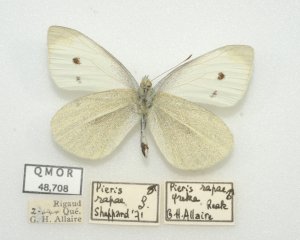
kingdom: Animalia
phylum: Arthropoda
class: Insecta
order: Lepidoptera
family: Pieridae
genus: Pieris
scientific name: Pieris rapae
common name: Cabbage White
